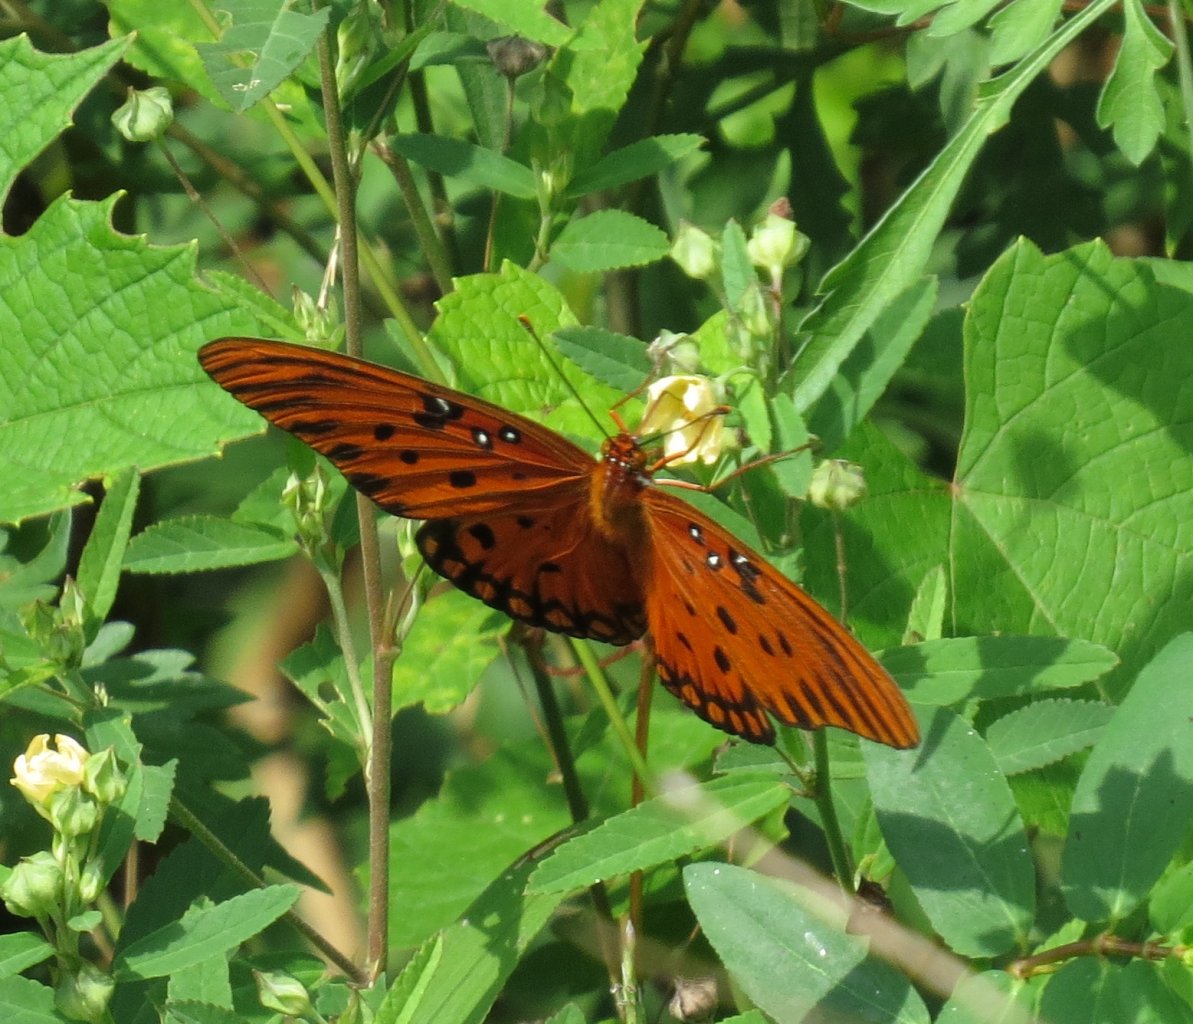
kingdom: Animalia
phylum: Arthropoda
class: Insecta
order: Lepidoptera
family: Nymphalidae
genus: Dione
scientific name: Dione vanillae
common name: Gulf Fritillary
